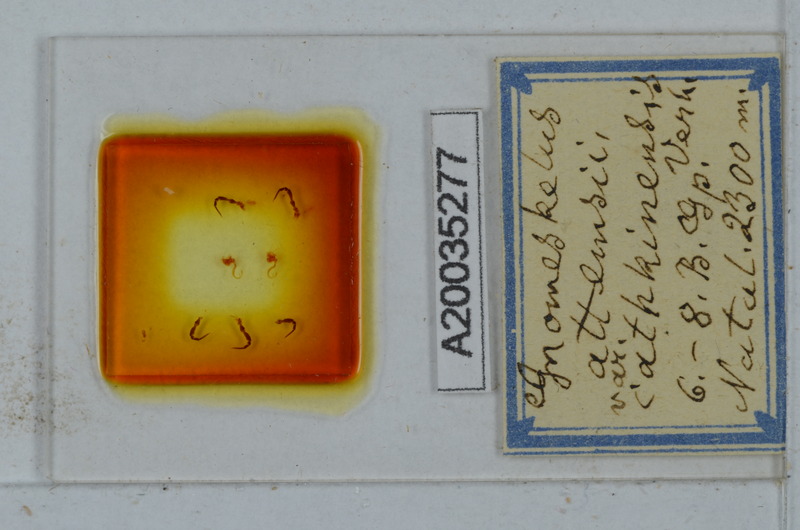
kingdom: Animalia
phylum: Arthropoda
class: Diplopoda
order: Polydesmida
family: Dalodesmidae
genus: Gnomeskelus
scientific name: Gnomeskelus attemsii
